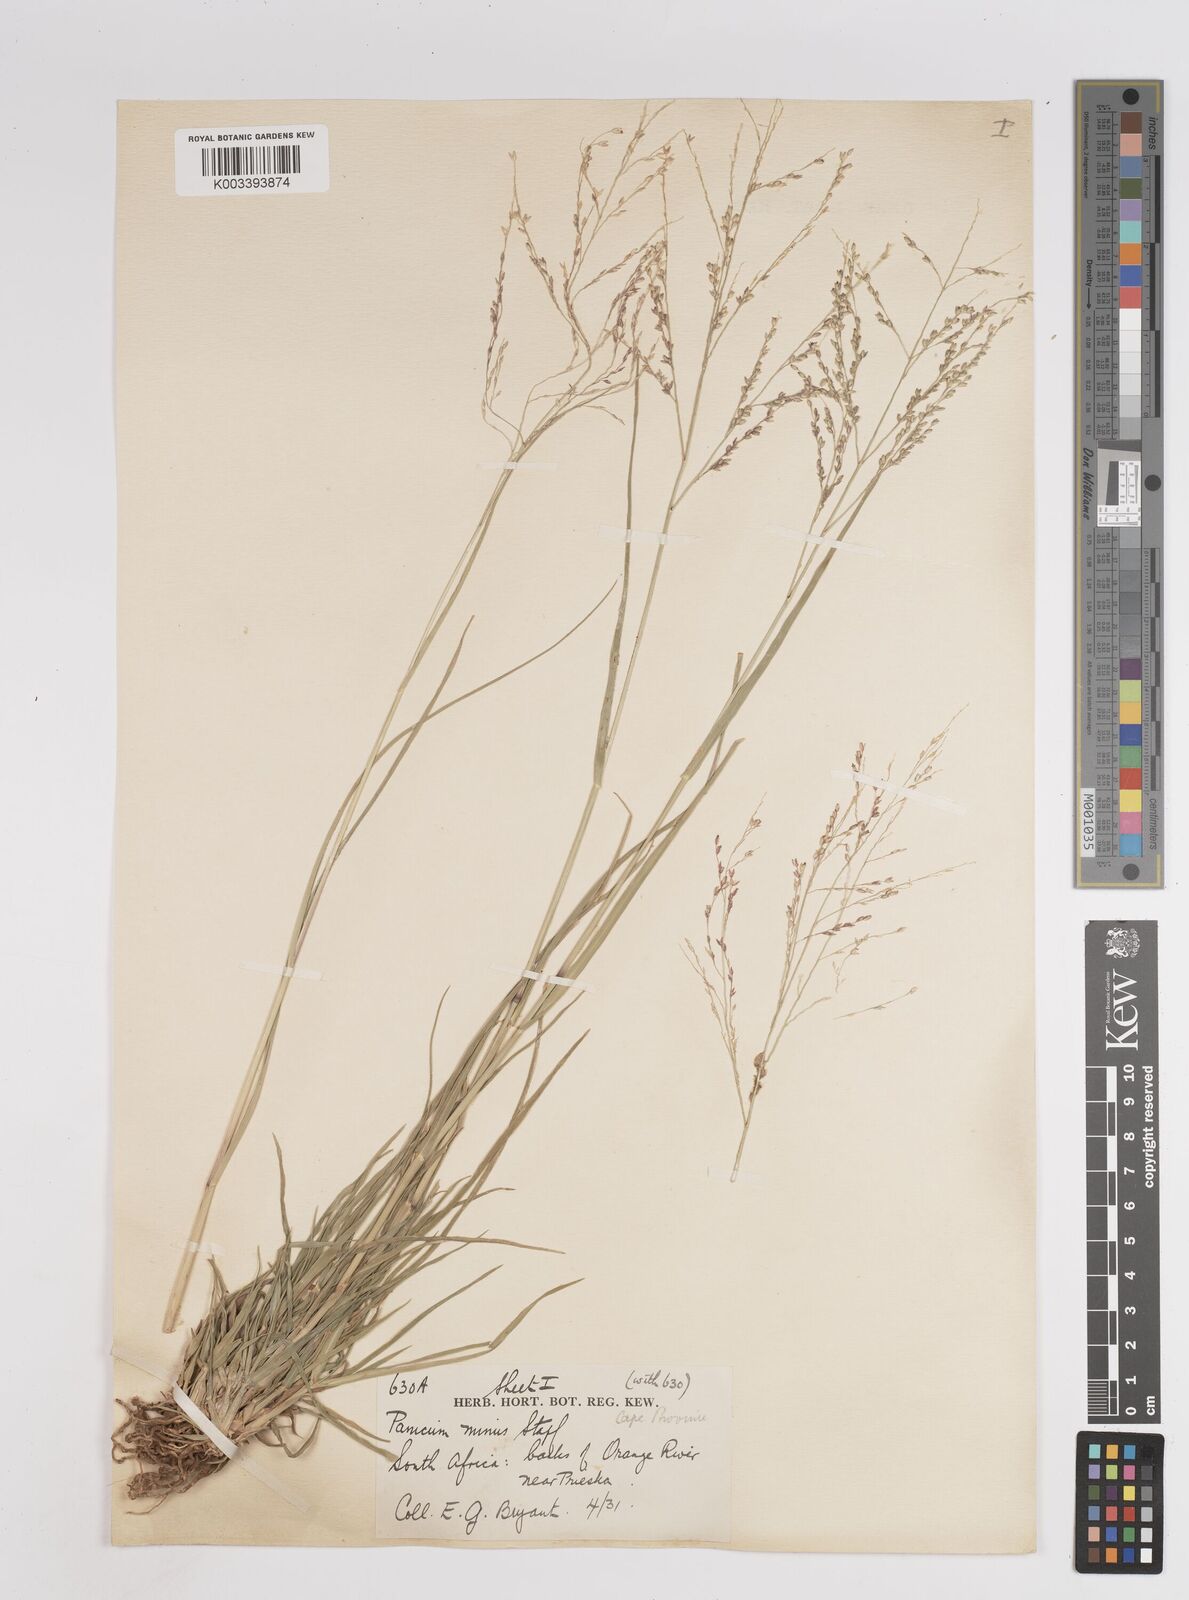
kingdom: Plantae
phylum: Tracheophyta
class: Liliopsida
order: Poales
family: Poaceae
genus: Panicum
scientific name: Panicum stapfianum
